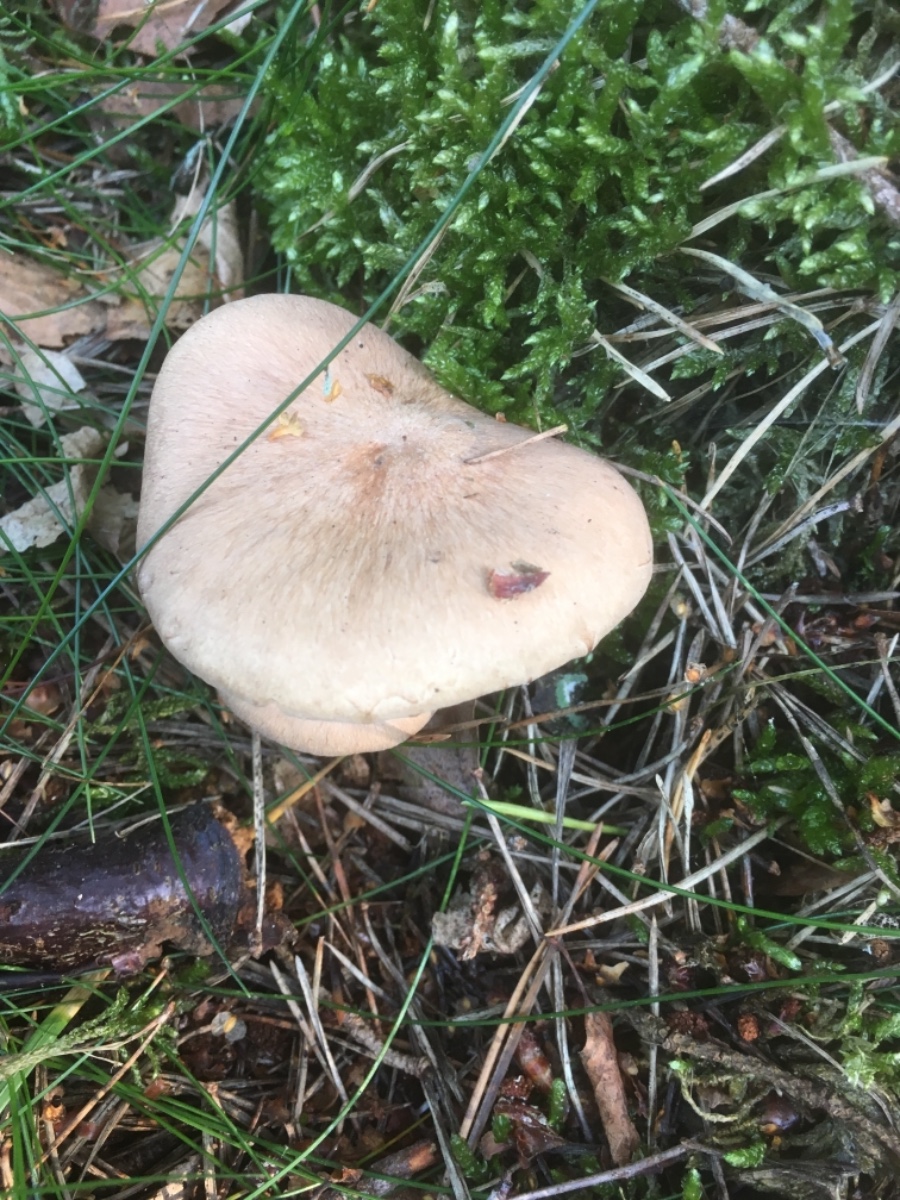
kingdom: Fungi
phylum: Basidiomycota
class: Agaricomycetes
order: Agaricales
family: Omphalotaceae
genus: Collybiopsis
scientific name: Collybiopsis peronata
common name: bestøvlet fladhat
